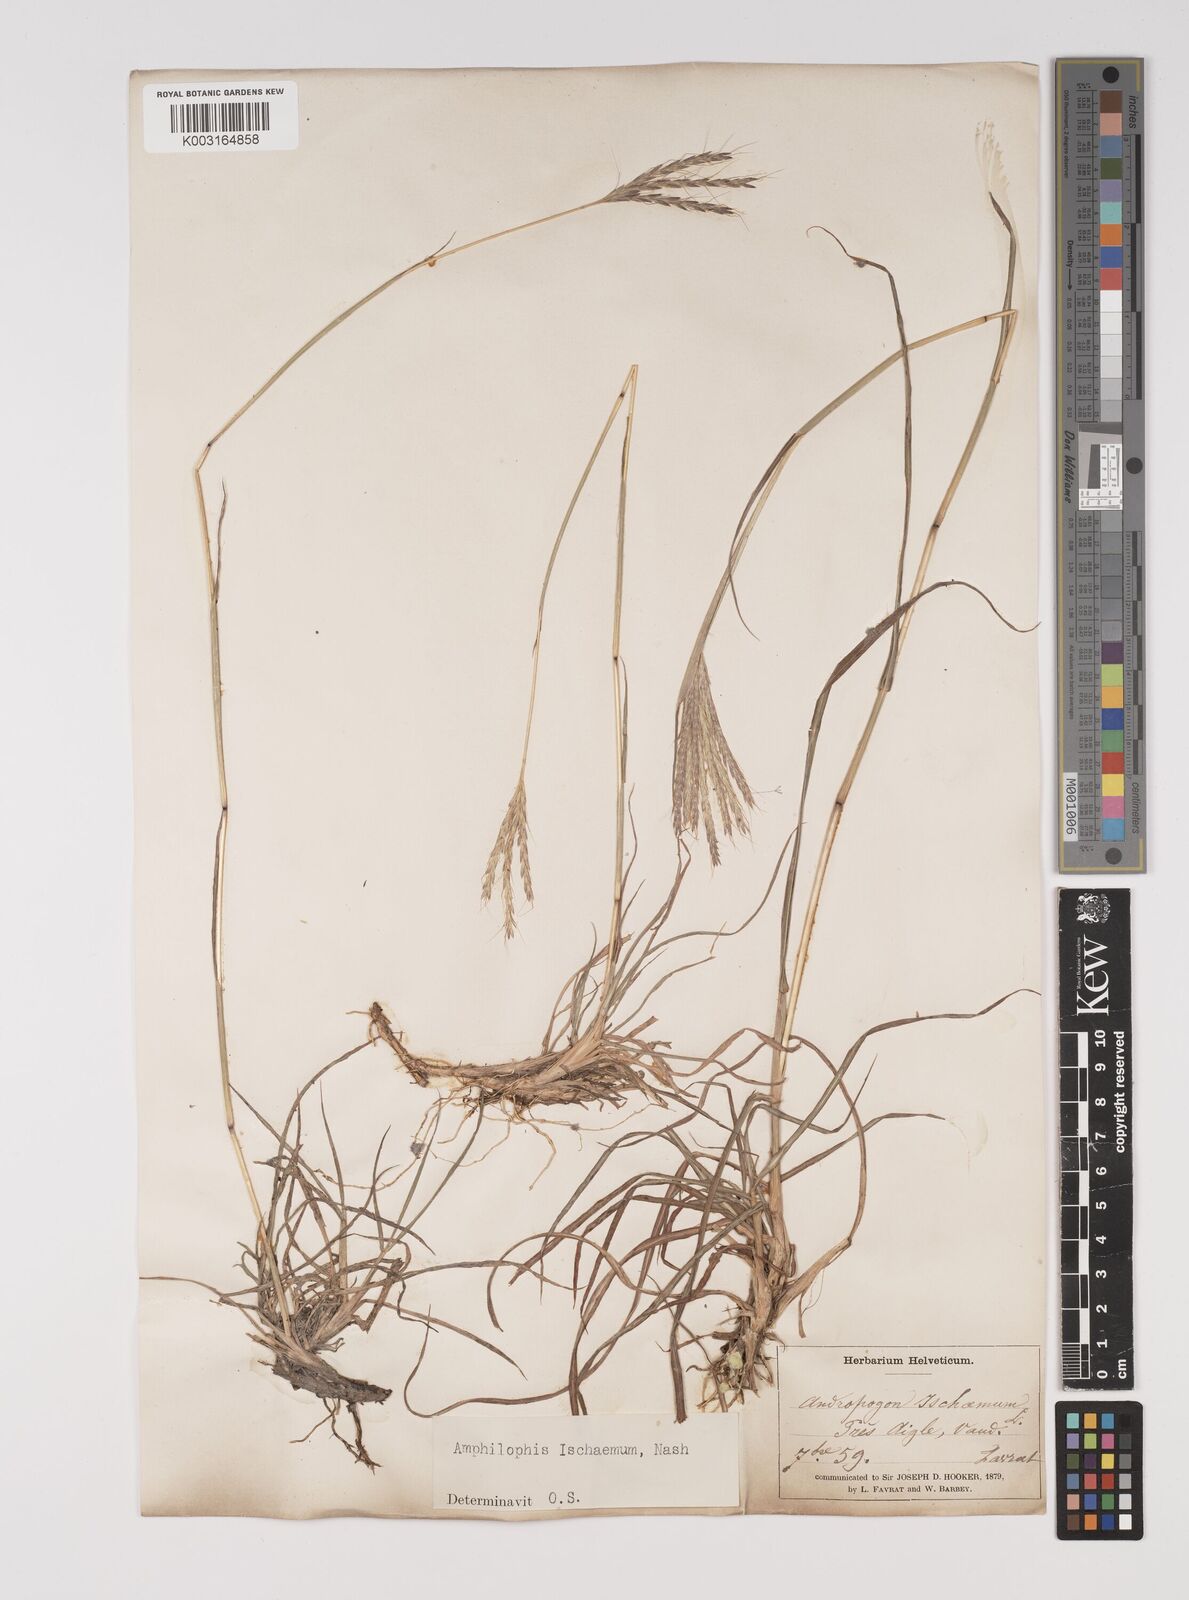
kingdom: Plantae
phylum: Tracheophyta
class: Liliopsida
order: Poales
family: Poaceae
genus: Bothriochloa
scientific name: Bothriochloa ischaemum
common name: Yellow bluestem
